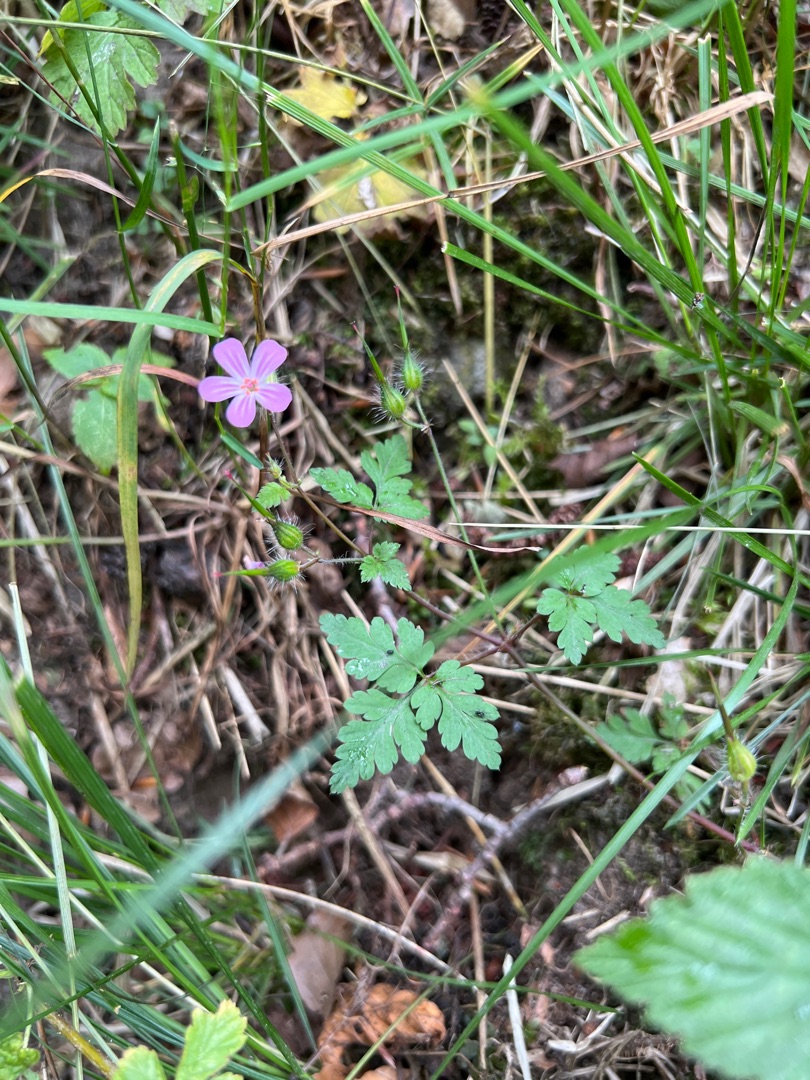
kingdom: Plantae
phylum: Tracheophyta
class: Magnoliopsida
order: Geraniales
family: Geraniaceae
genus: Geranium
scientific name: Geranium robertianum
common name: Stinkende storkenæb
